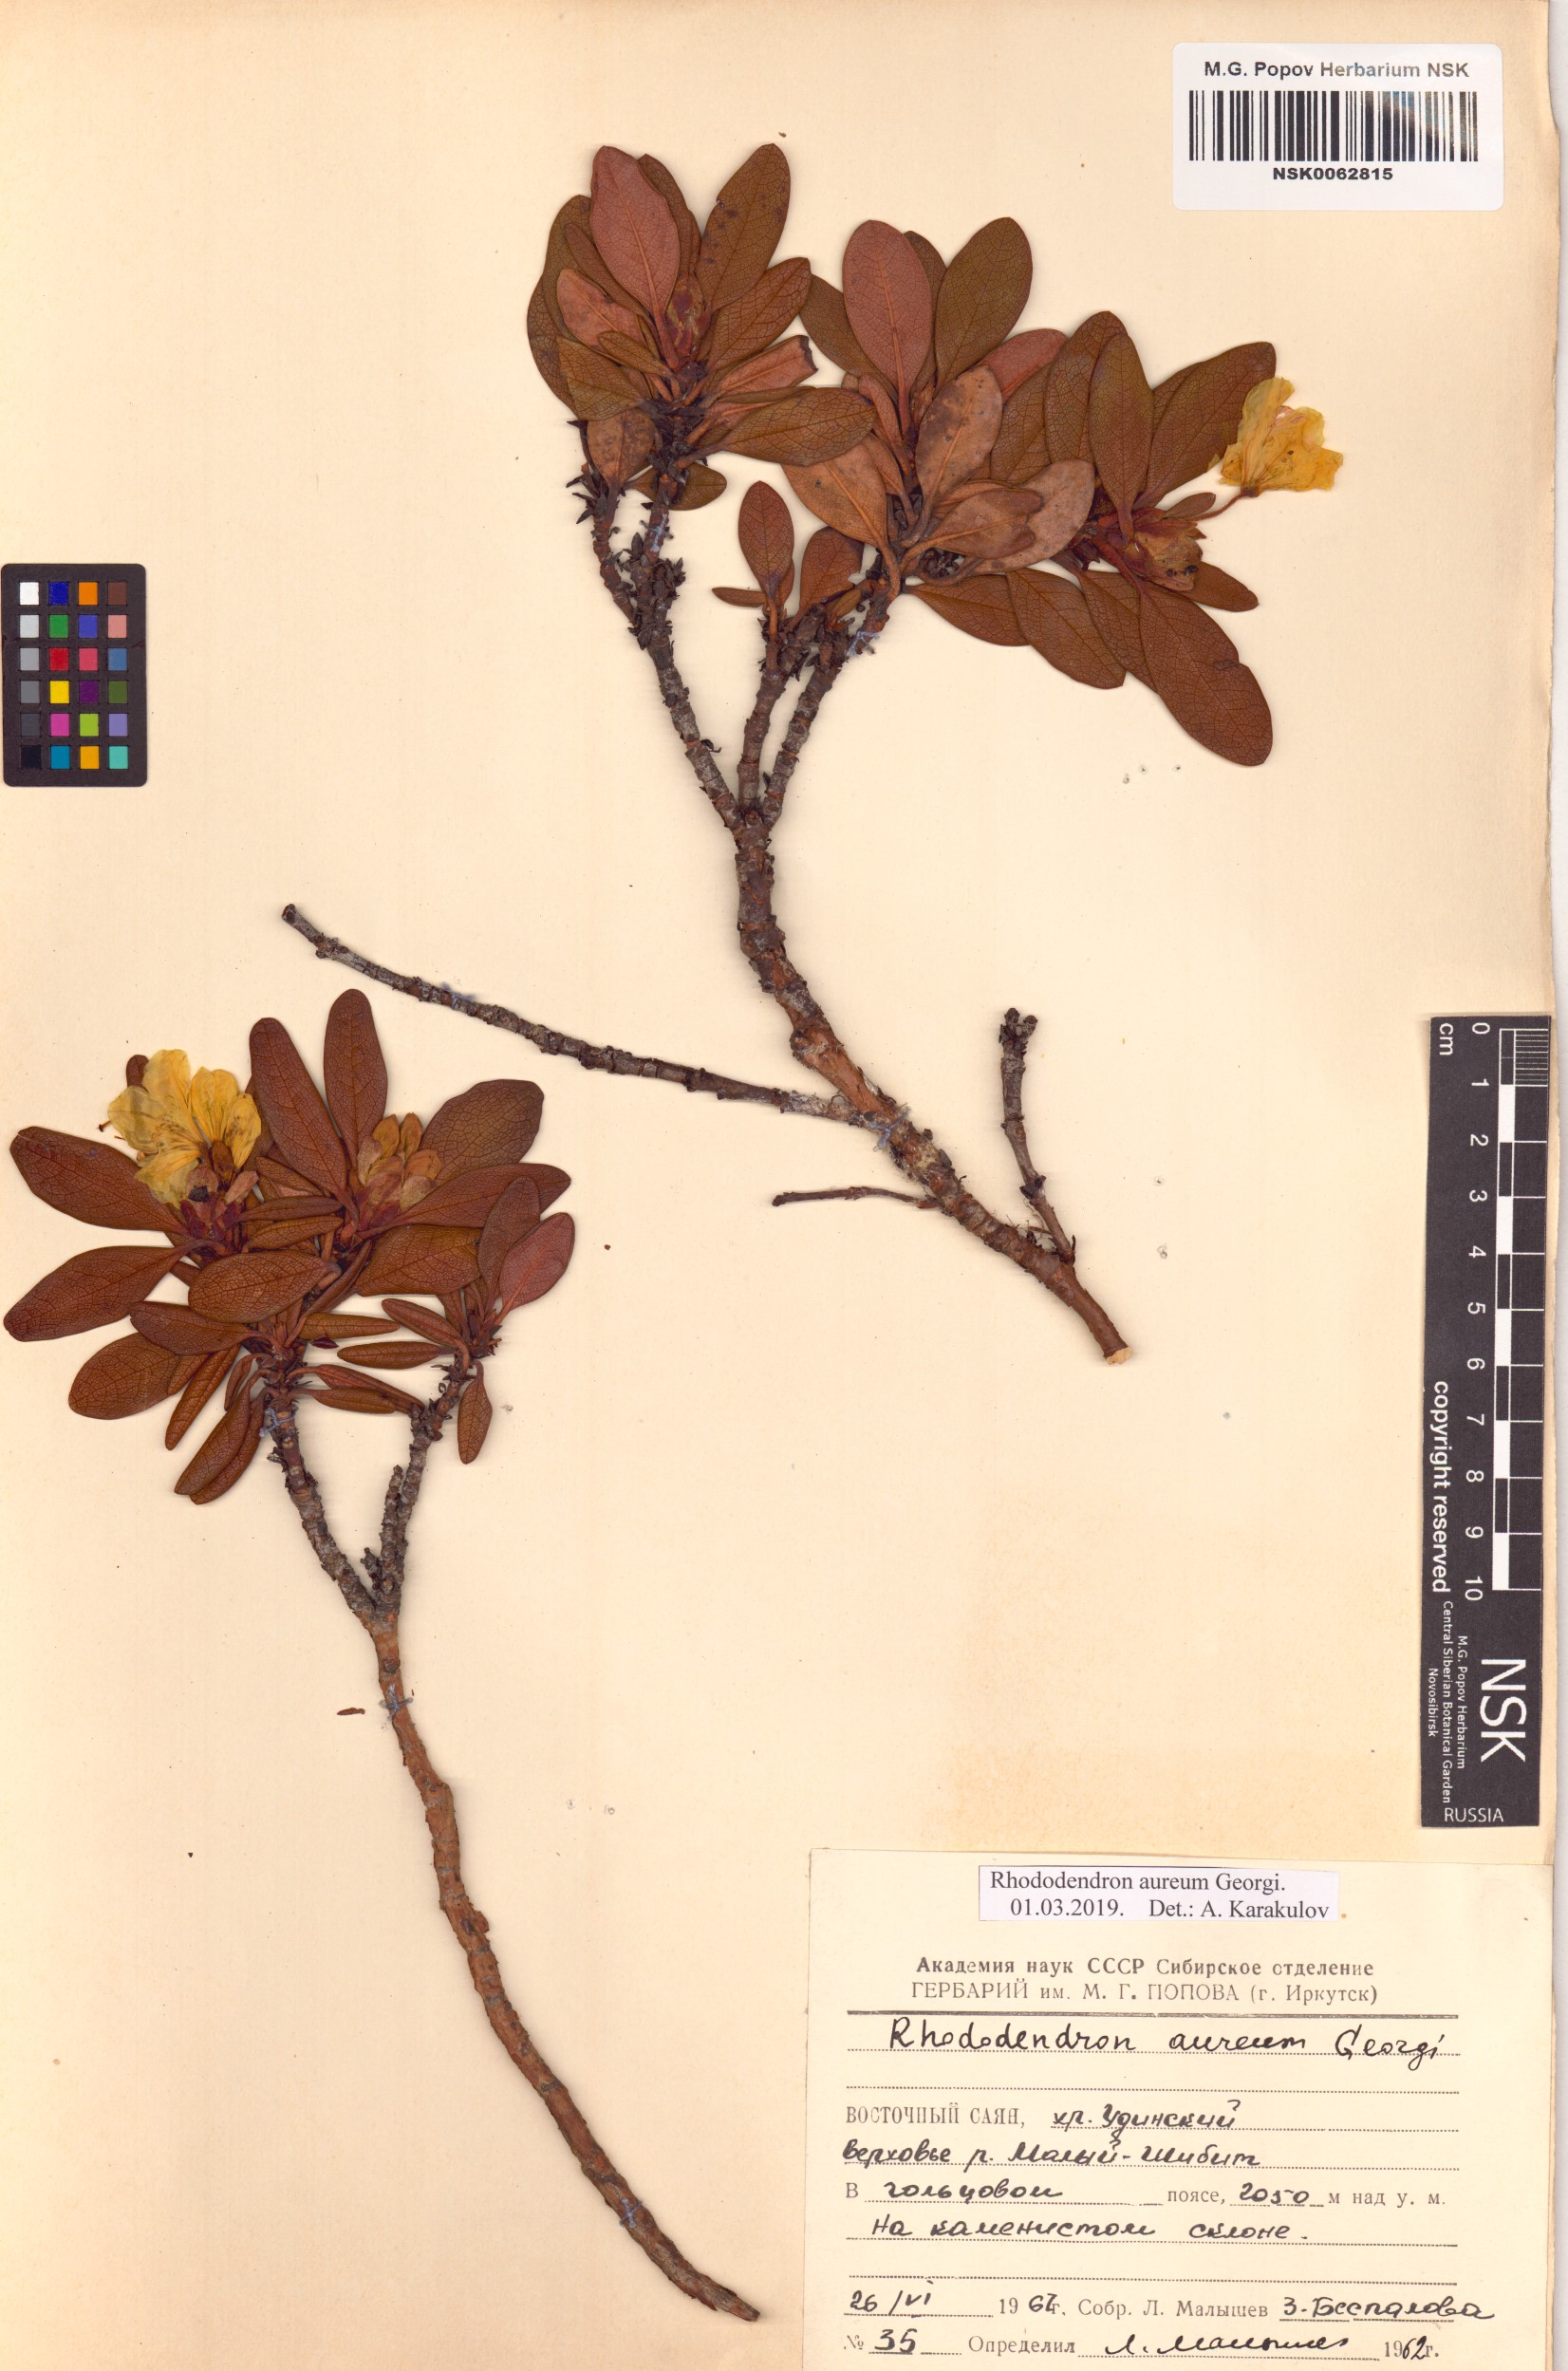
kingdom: Plantae
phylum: Tracheophyta
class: Magnoliopsida
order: Ericales
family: Ericaceae
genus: Rhododendron
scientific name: Rhododendron aureum
